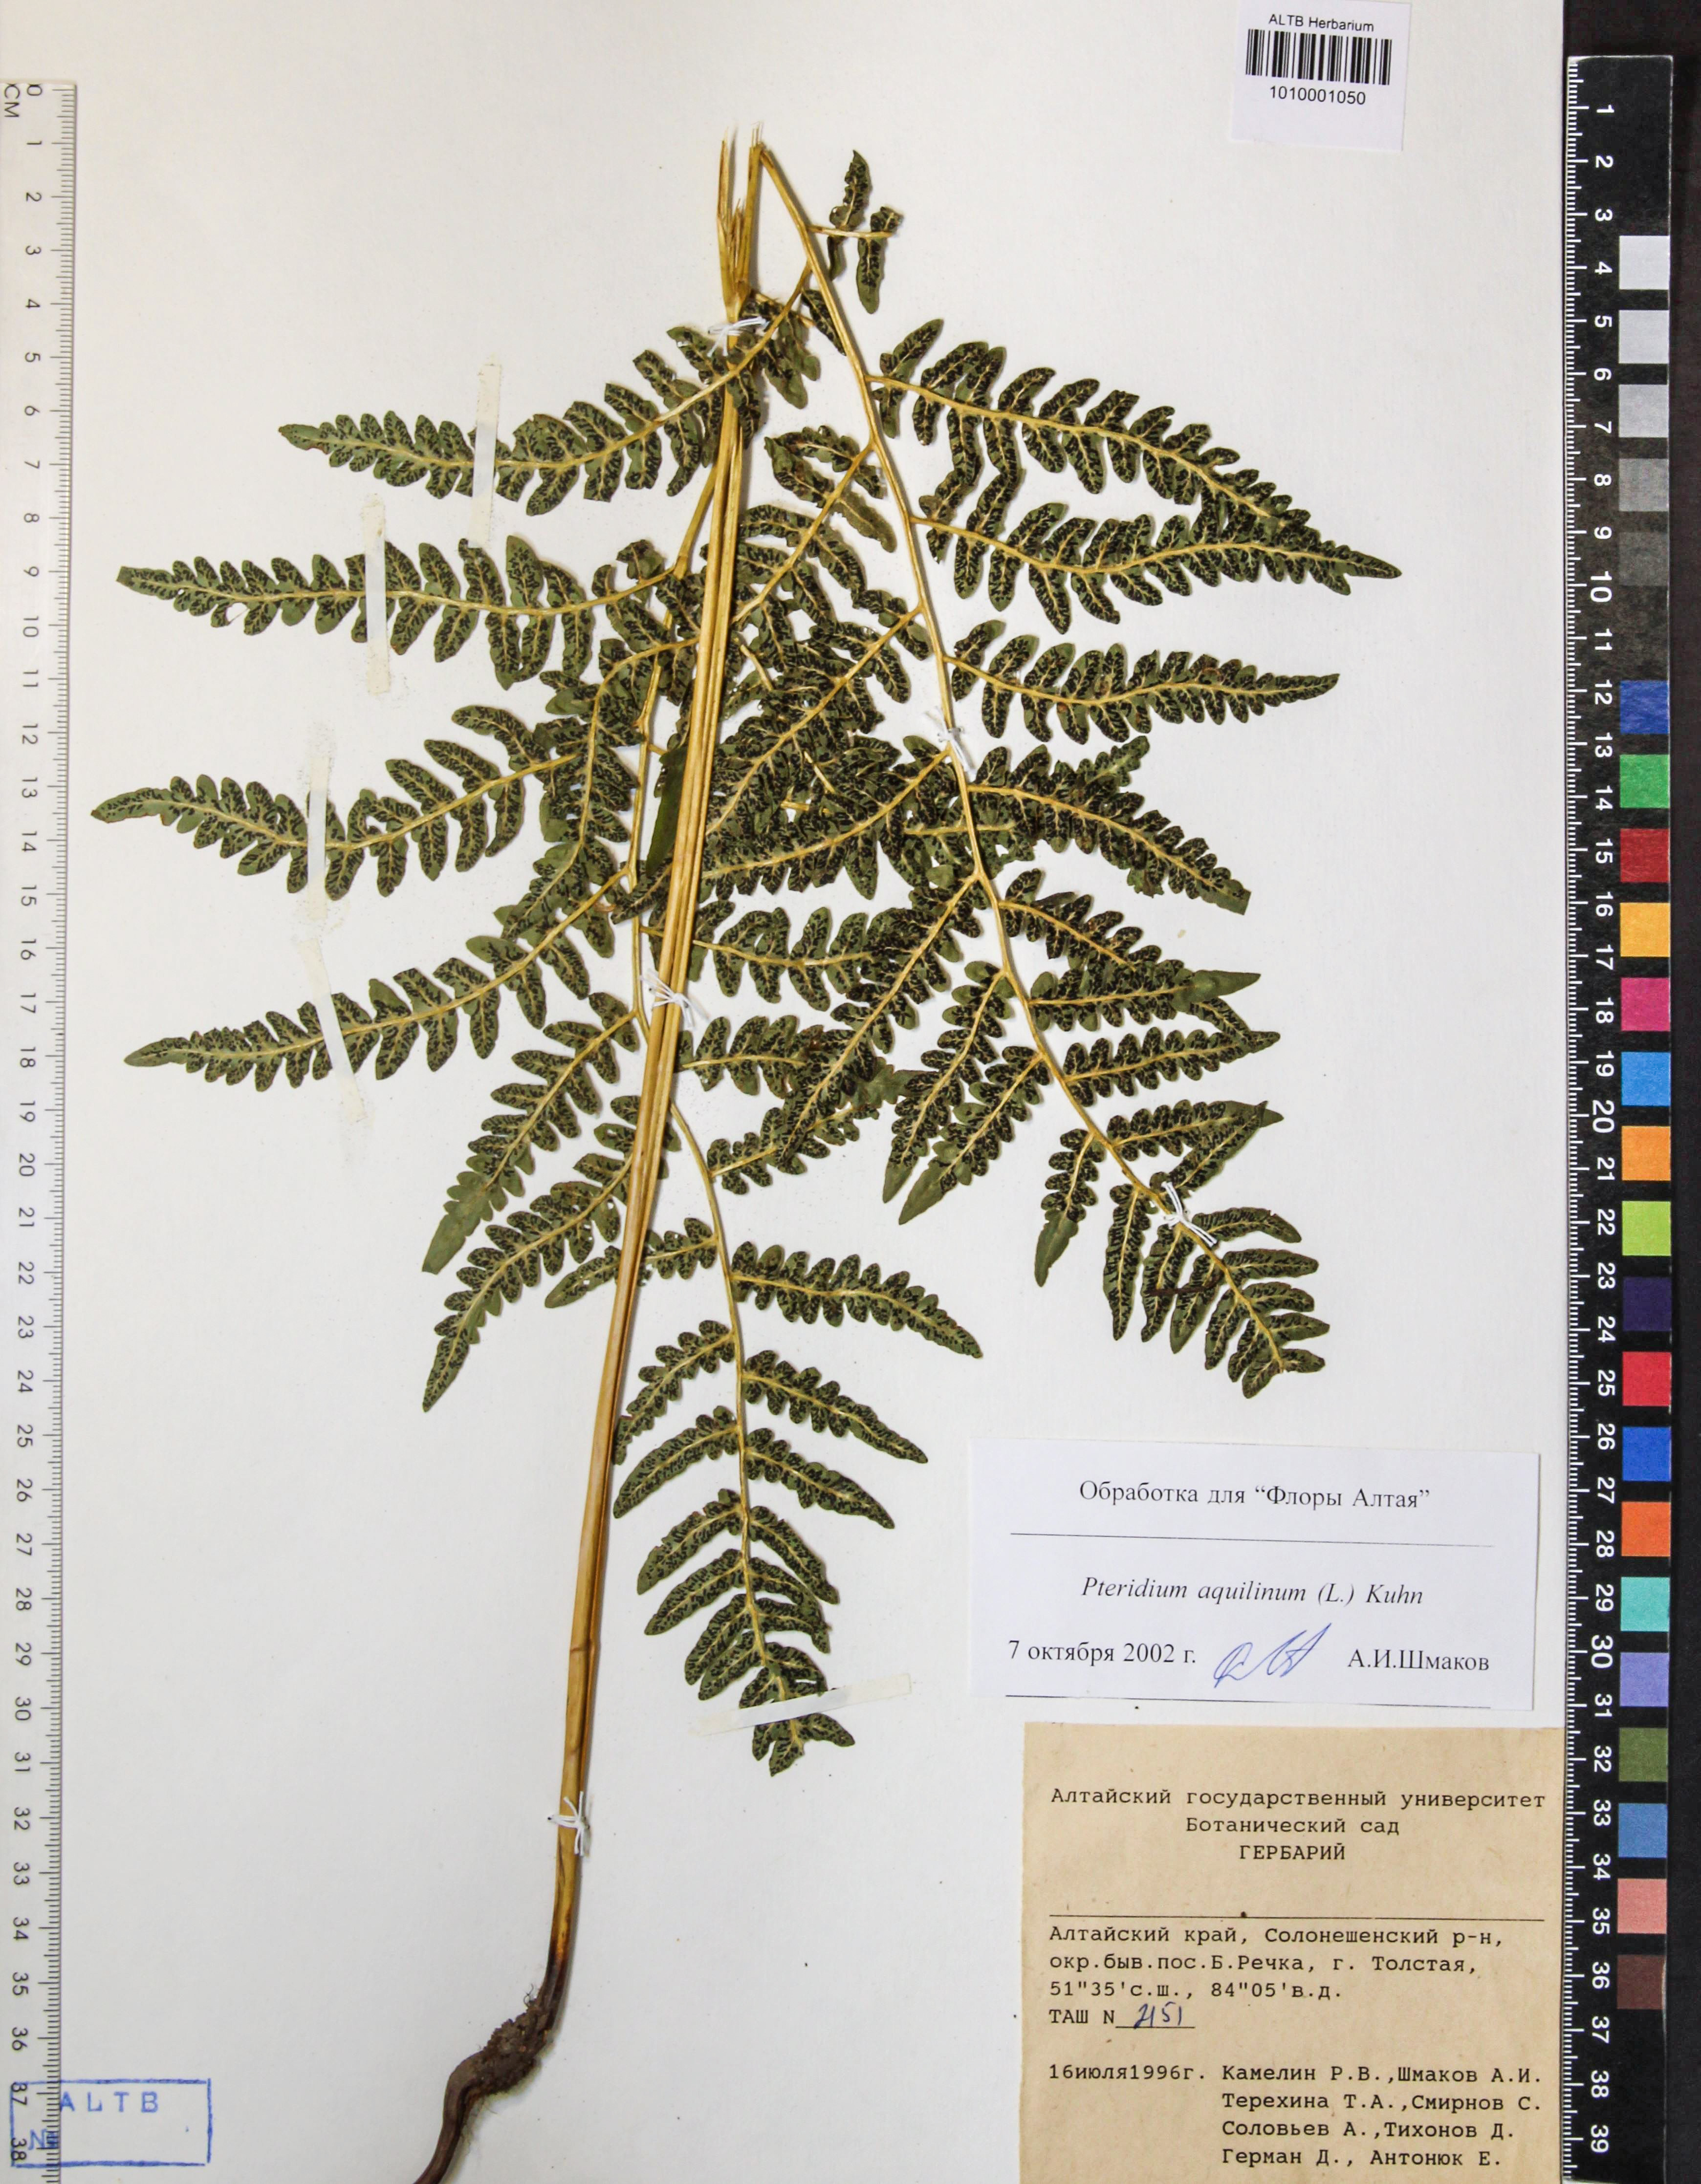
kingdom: Plantae
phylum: Tracheophyta
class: Polypodiopsida
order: Polypodiales
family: Dennstaedtiaceae
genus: Pteridium
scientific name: Pteridium aquilinum
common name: Bracken
